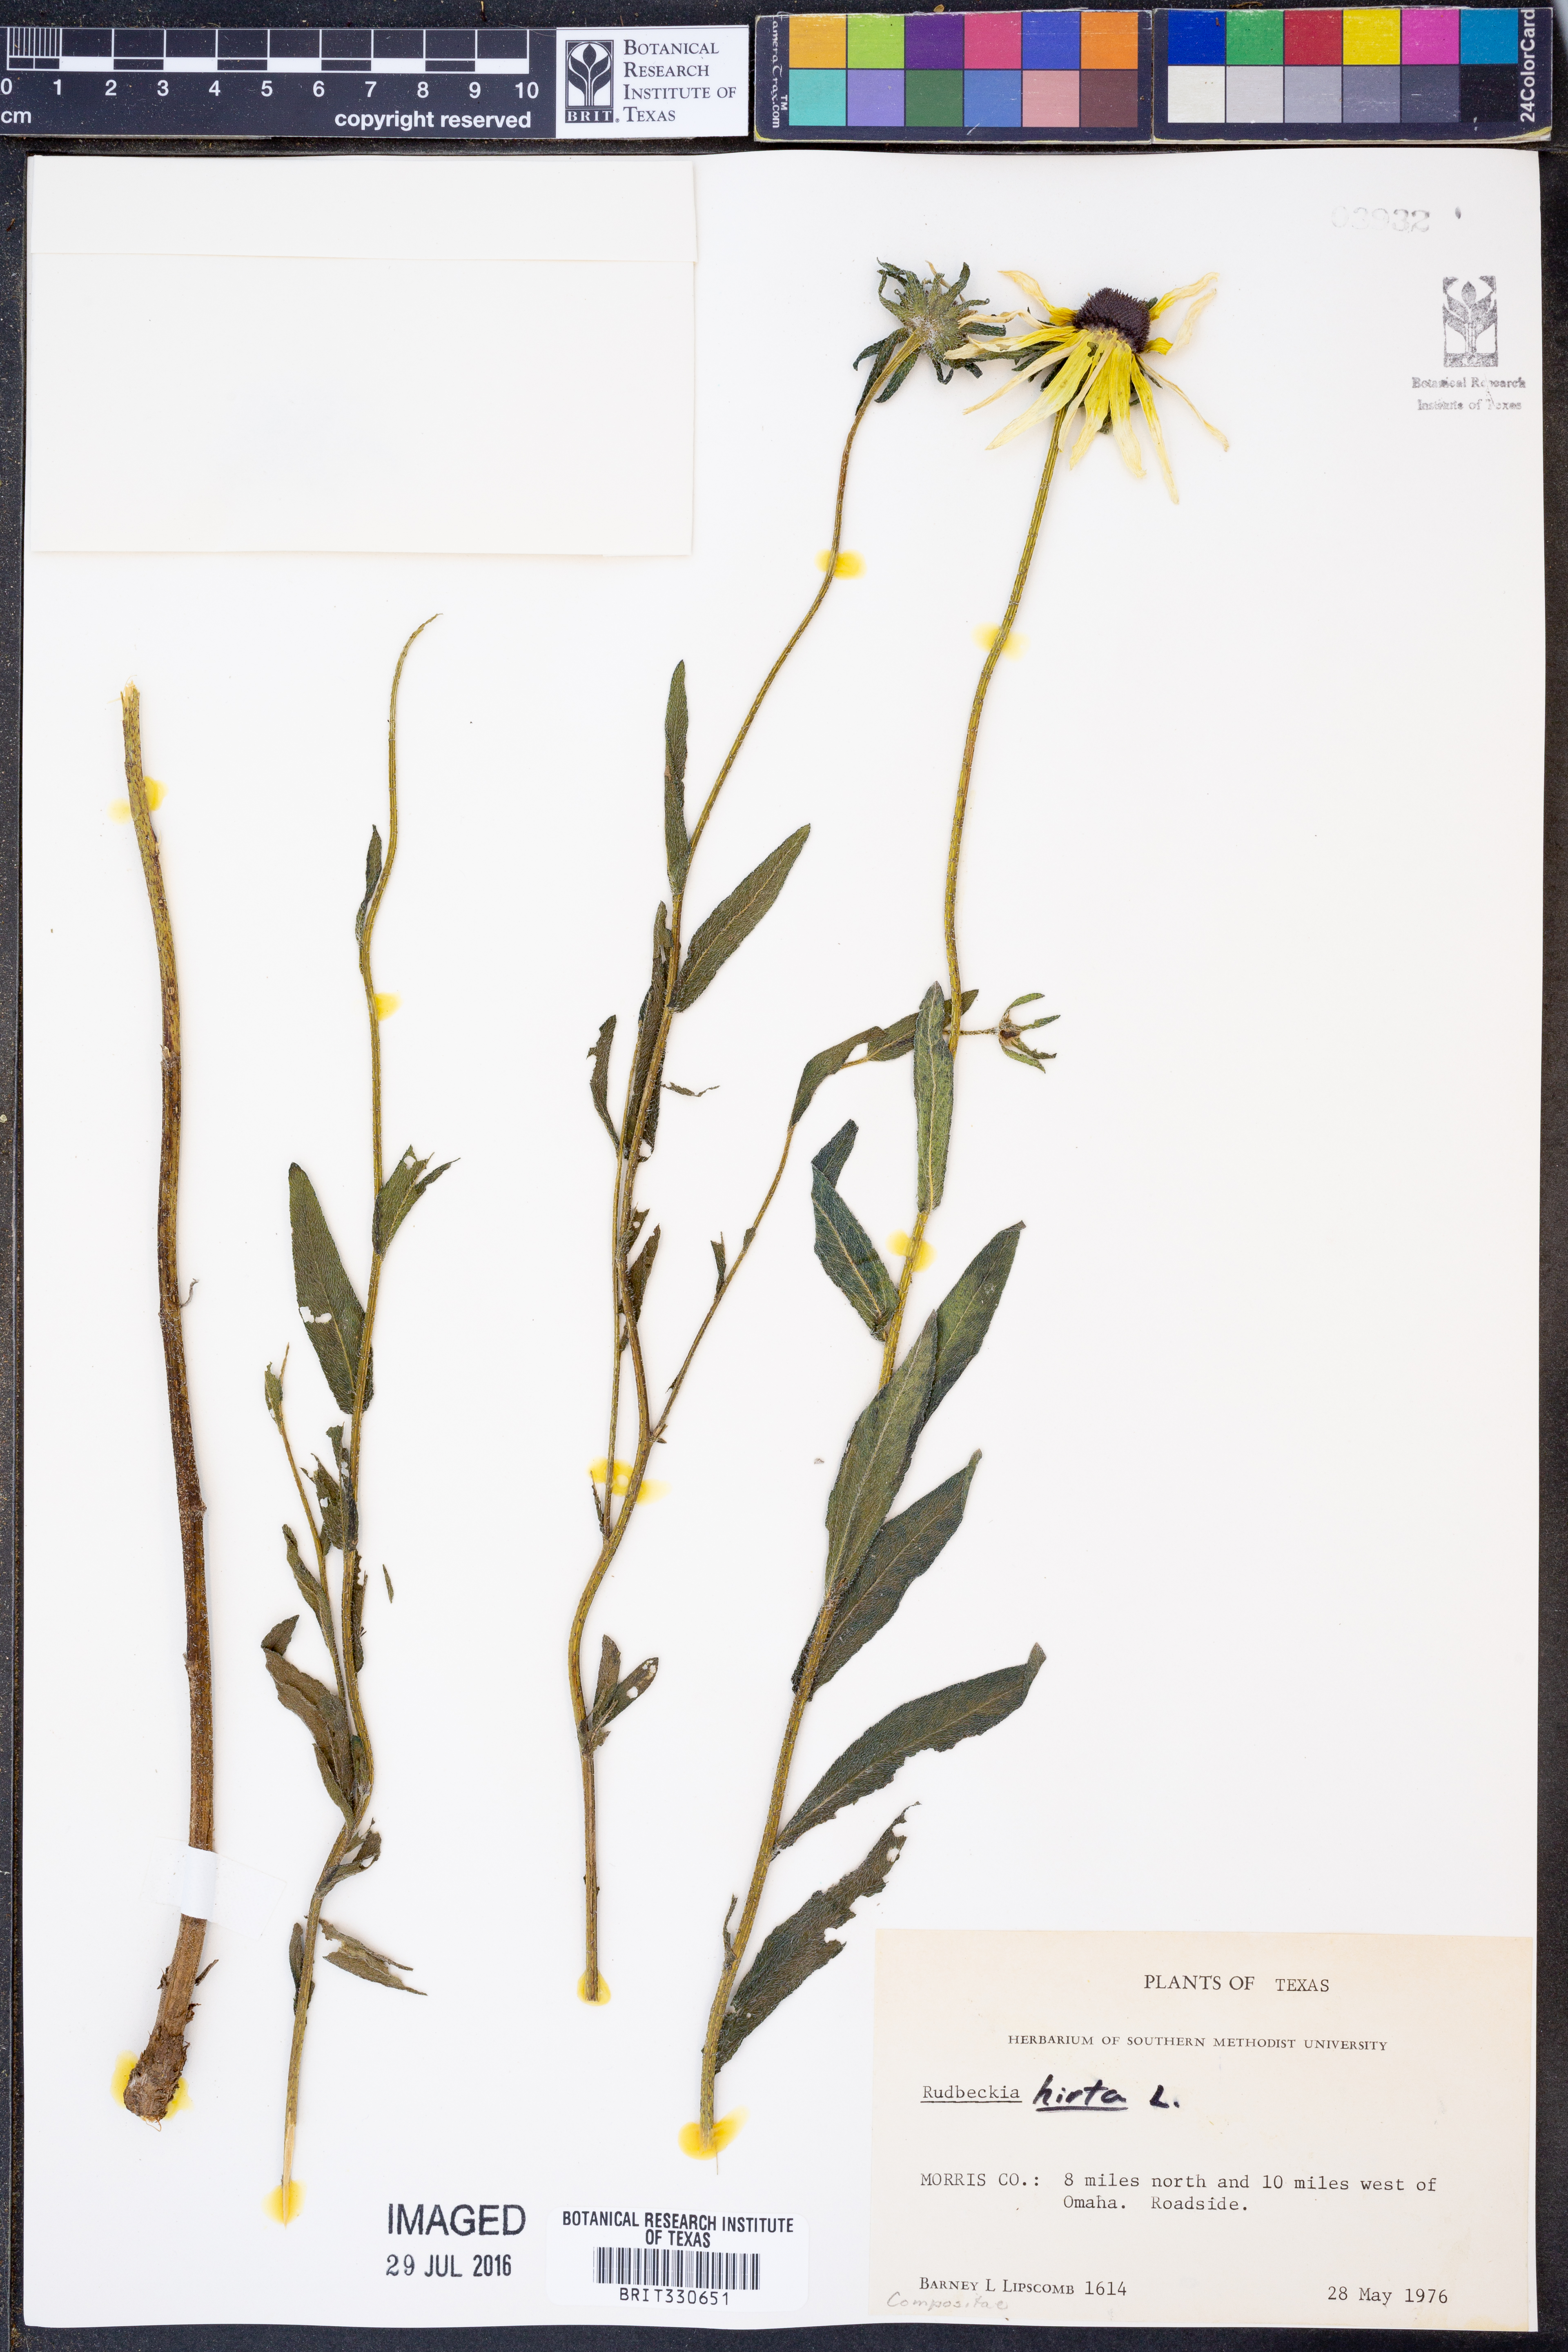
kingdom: Plantae
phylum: Tracheophyta
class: Magnoliopsida
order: Asterales
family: Asteraceae
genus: Rudbeckia
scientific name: Rudbeckia hirta
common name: Black-eyed-susan
